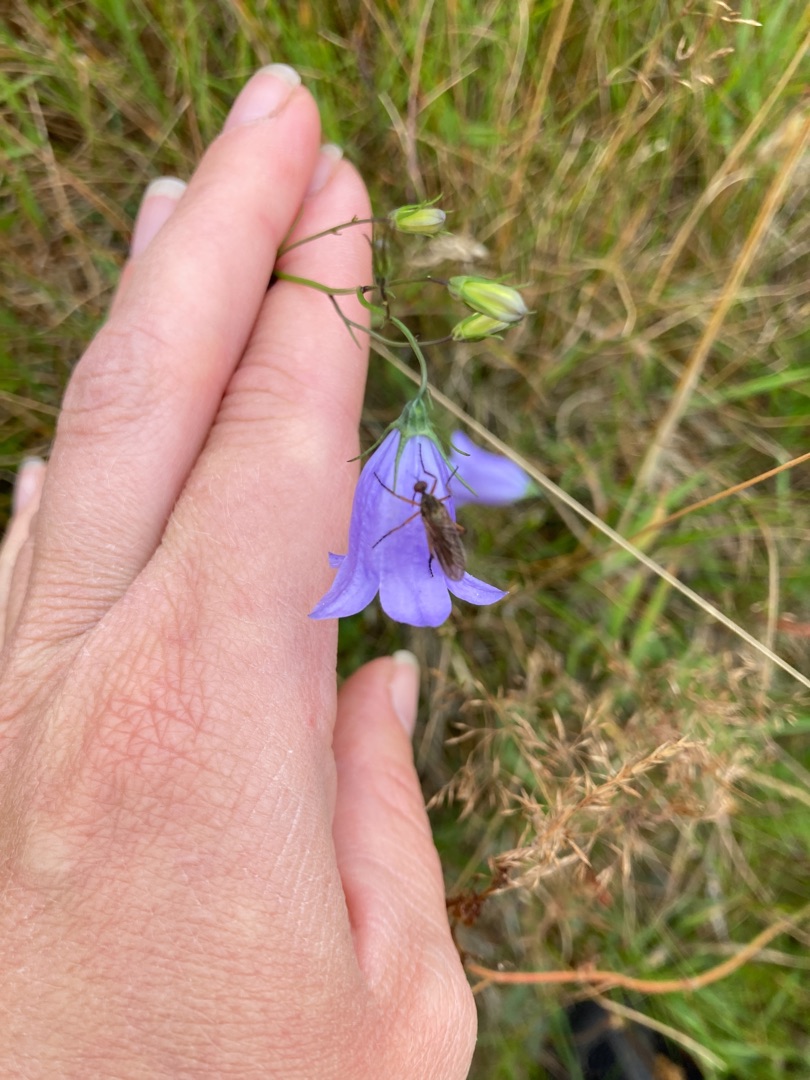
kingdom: Plantae
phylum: Tracheophyta
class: Magnoliopsida
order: Asterales
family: Campanulaceae
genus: Campanula
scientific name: Campanula rotundifolia
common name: Liden klokke
